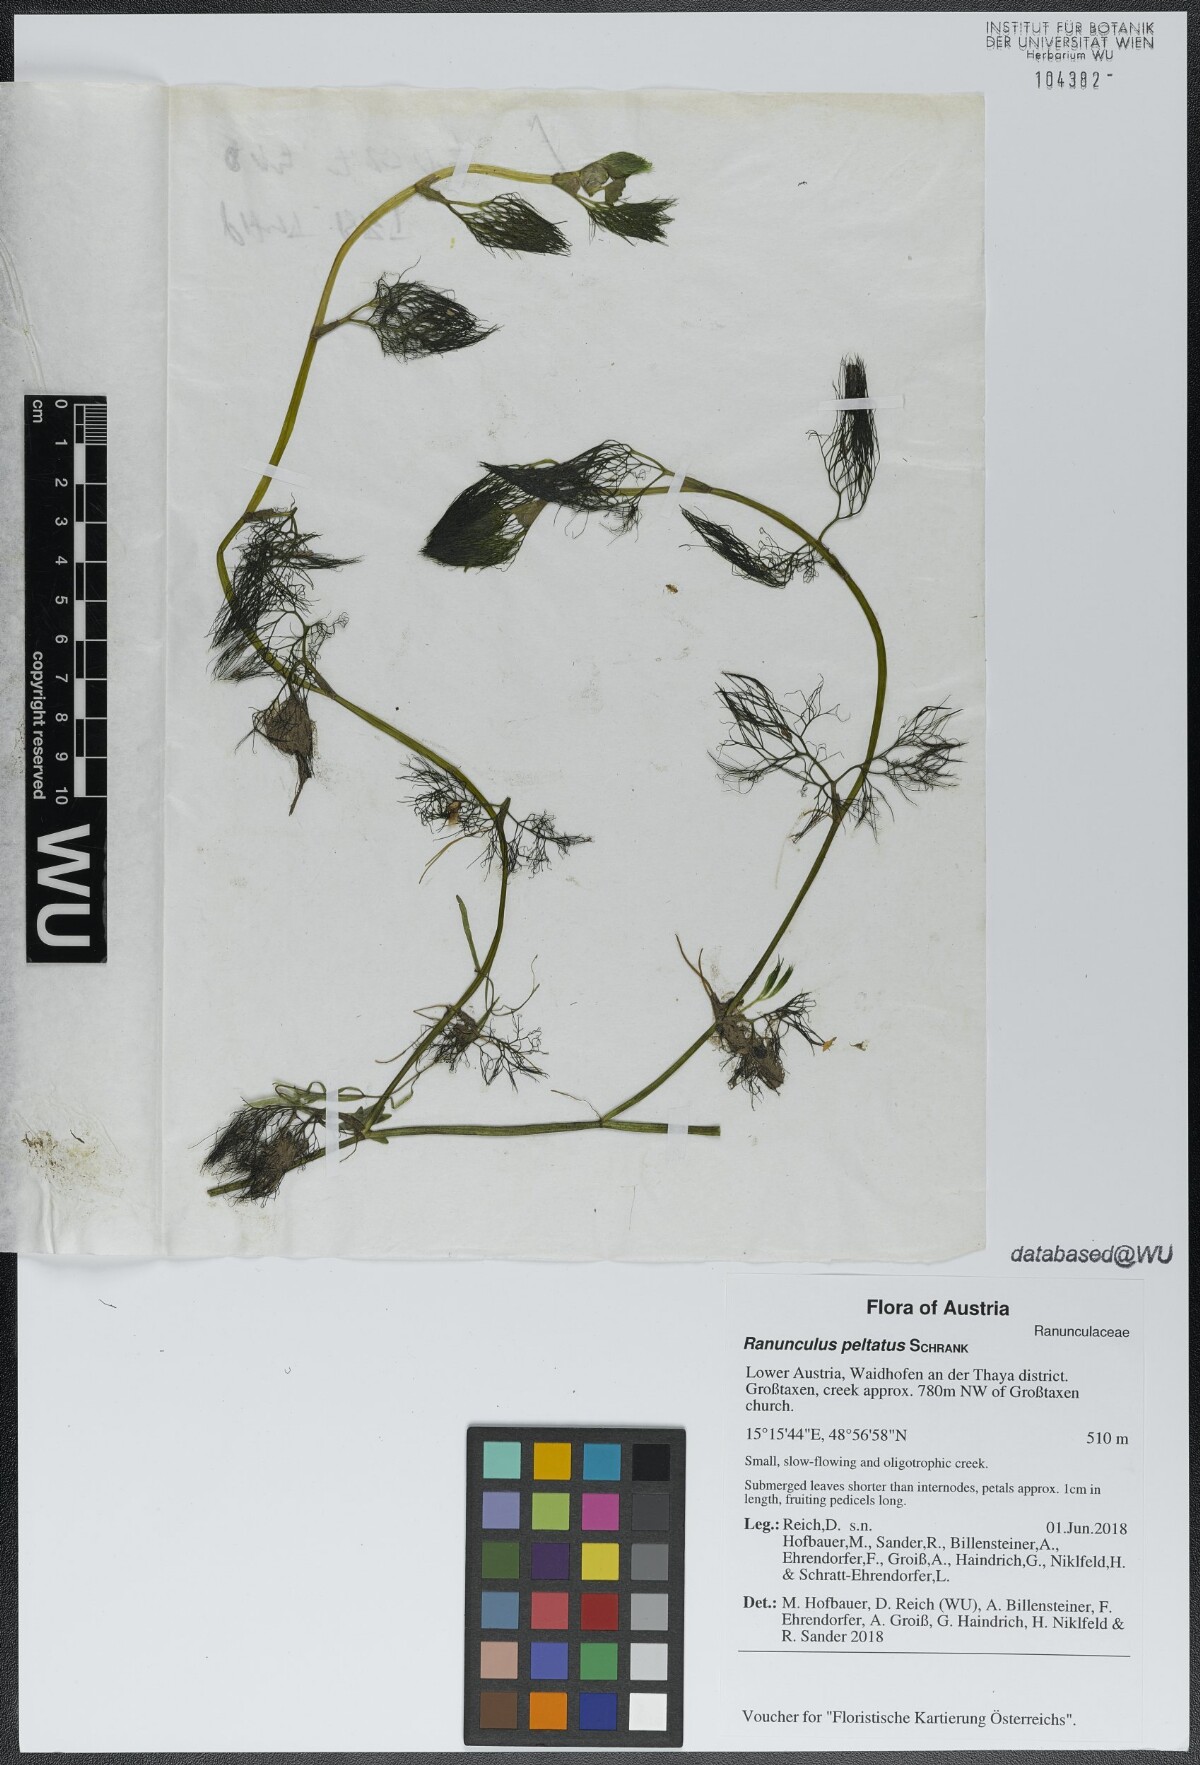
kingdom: Plantae
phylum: Tracheophyta
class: Magnoliopsida
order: Ranunculales
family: Ranunculaceae
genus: Ranunculus
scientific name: Ranunculus peltatus
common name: Pond water-crowfoot
